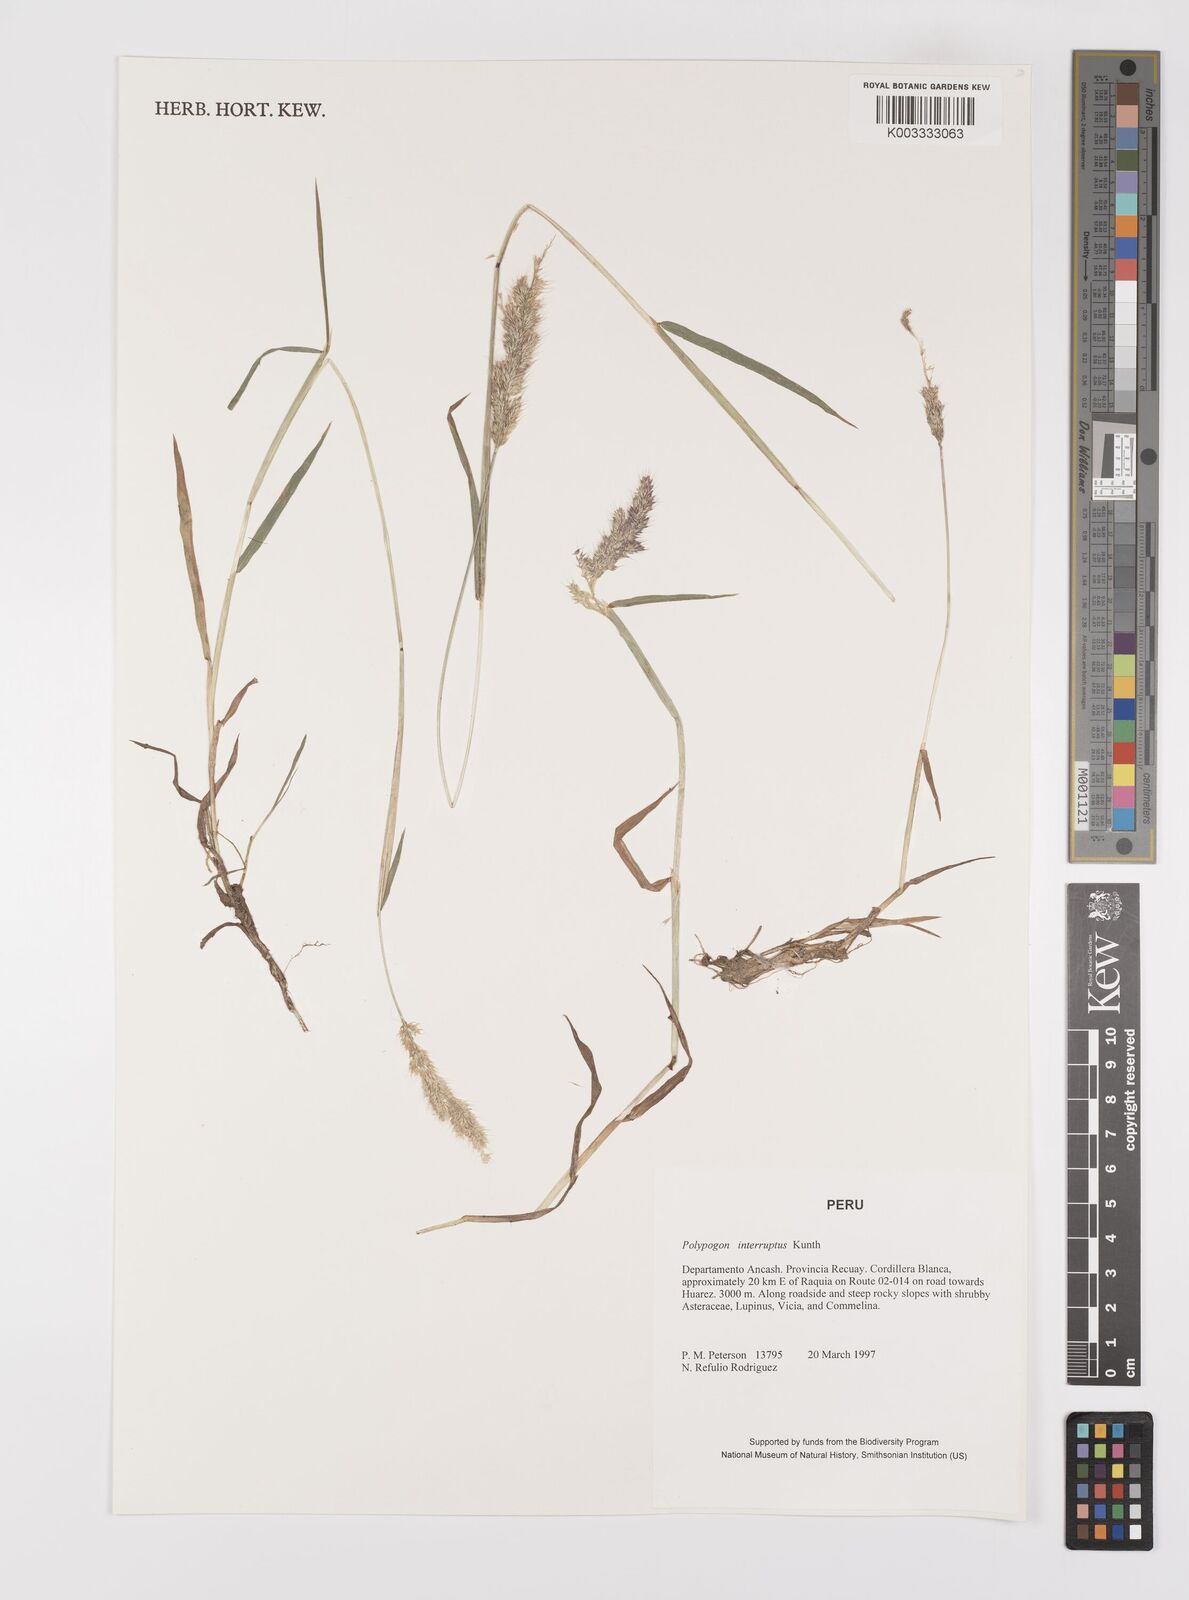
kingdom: Plantae
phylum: Tracheophyta
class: Liliopsida
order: Poales
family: Poaceae
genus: Polypogon
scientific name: Polypogon interruptus
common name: Ditch polypogon
